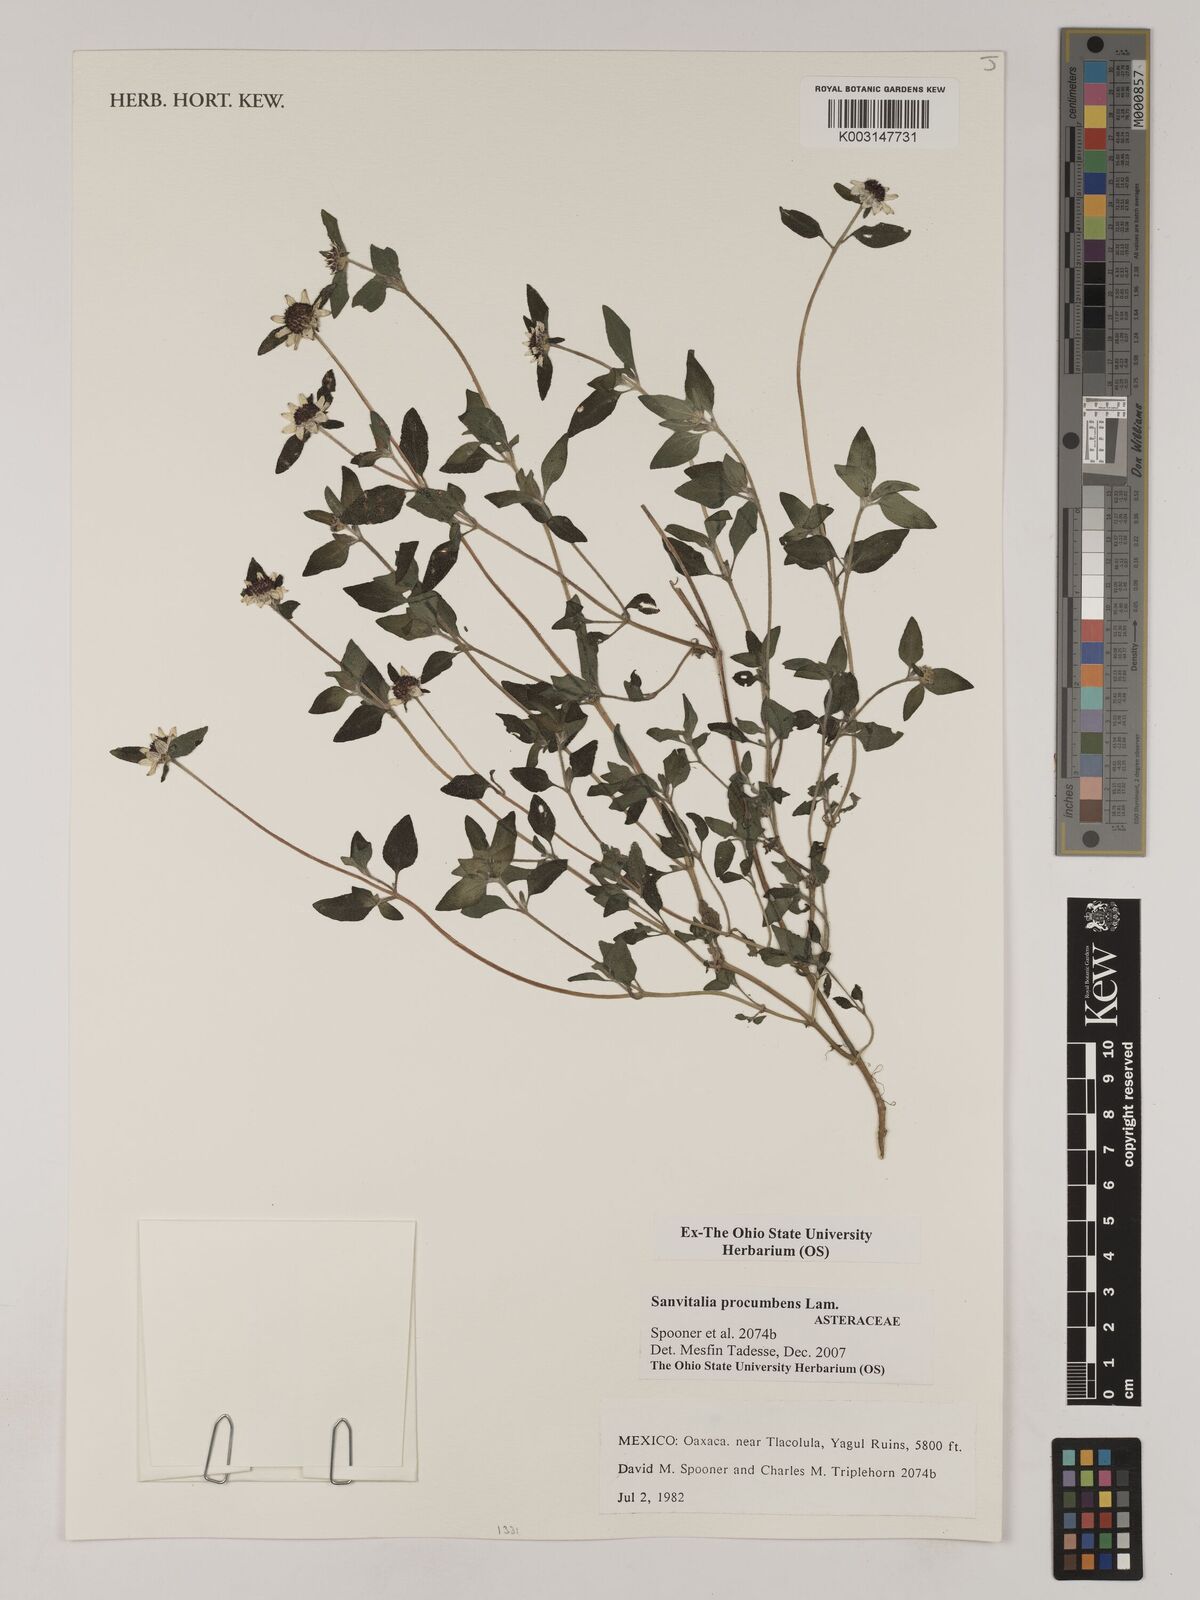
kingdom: Plantae
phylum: Tracheophyta
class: Magnoliopsida
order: Asterales
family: Asteraceae
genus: Sanvitalia
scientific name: Sanvitalia procumbens
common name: Mexican creeping zinnia
